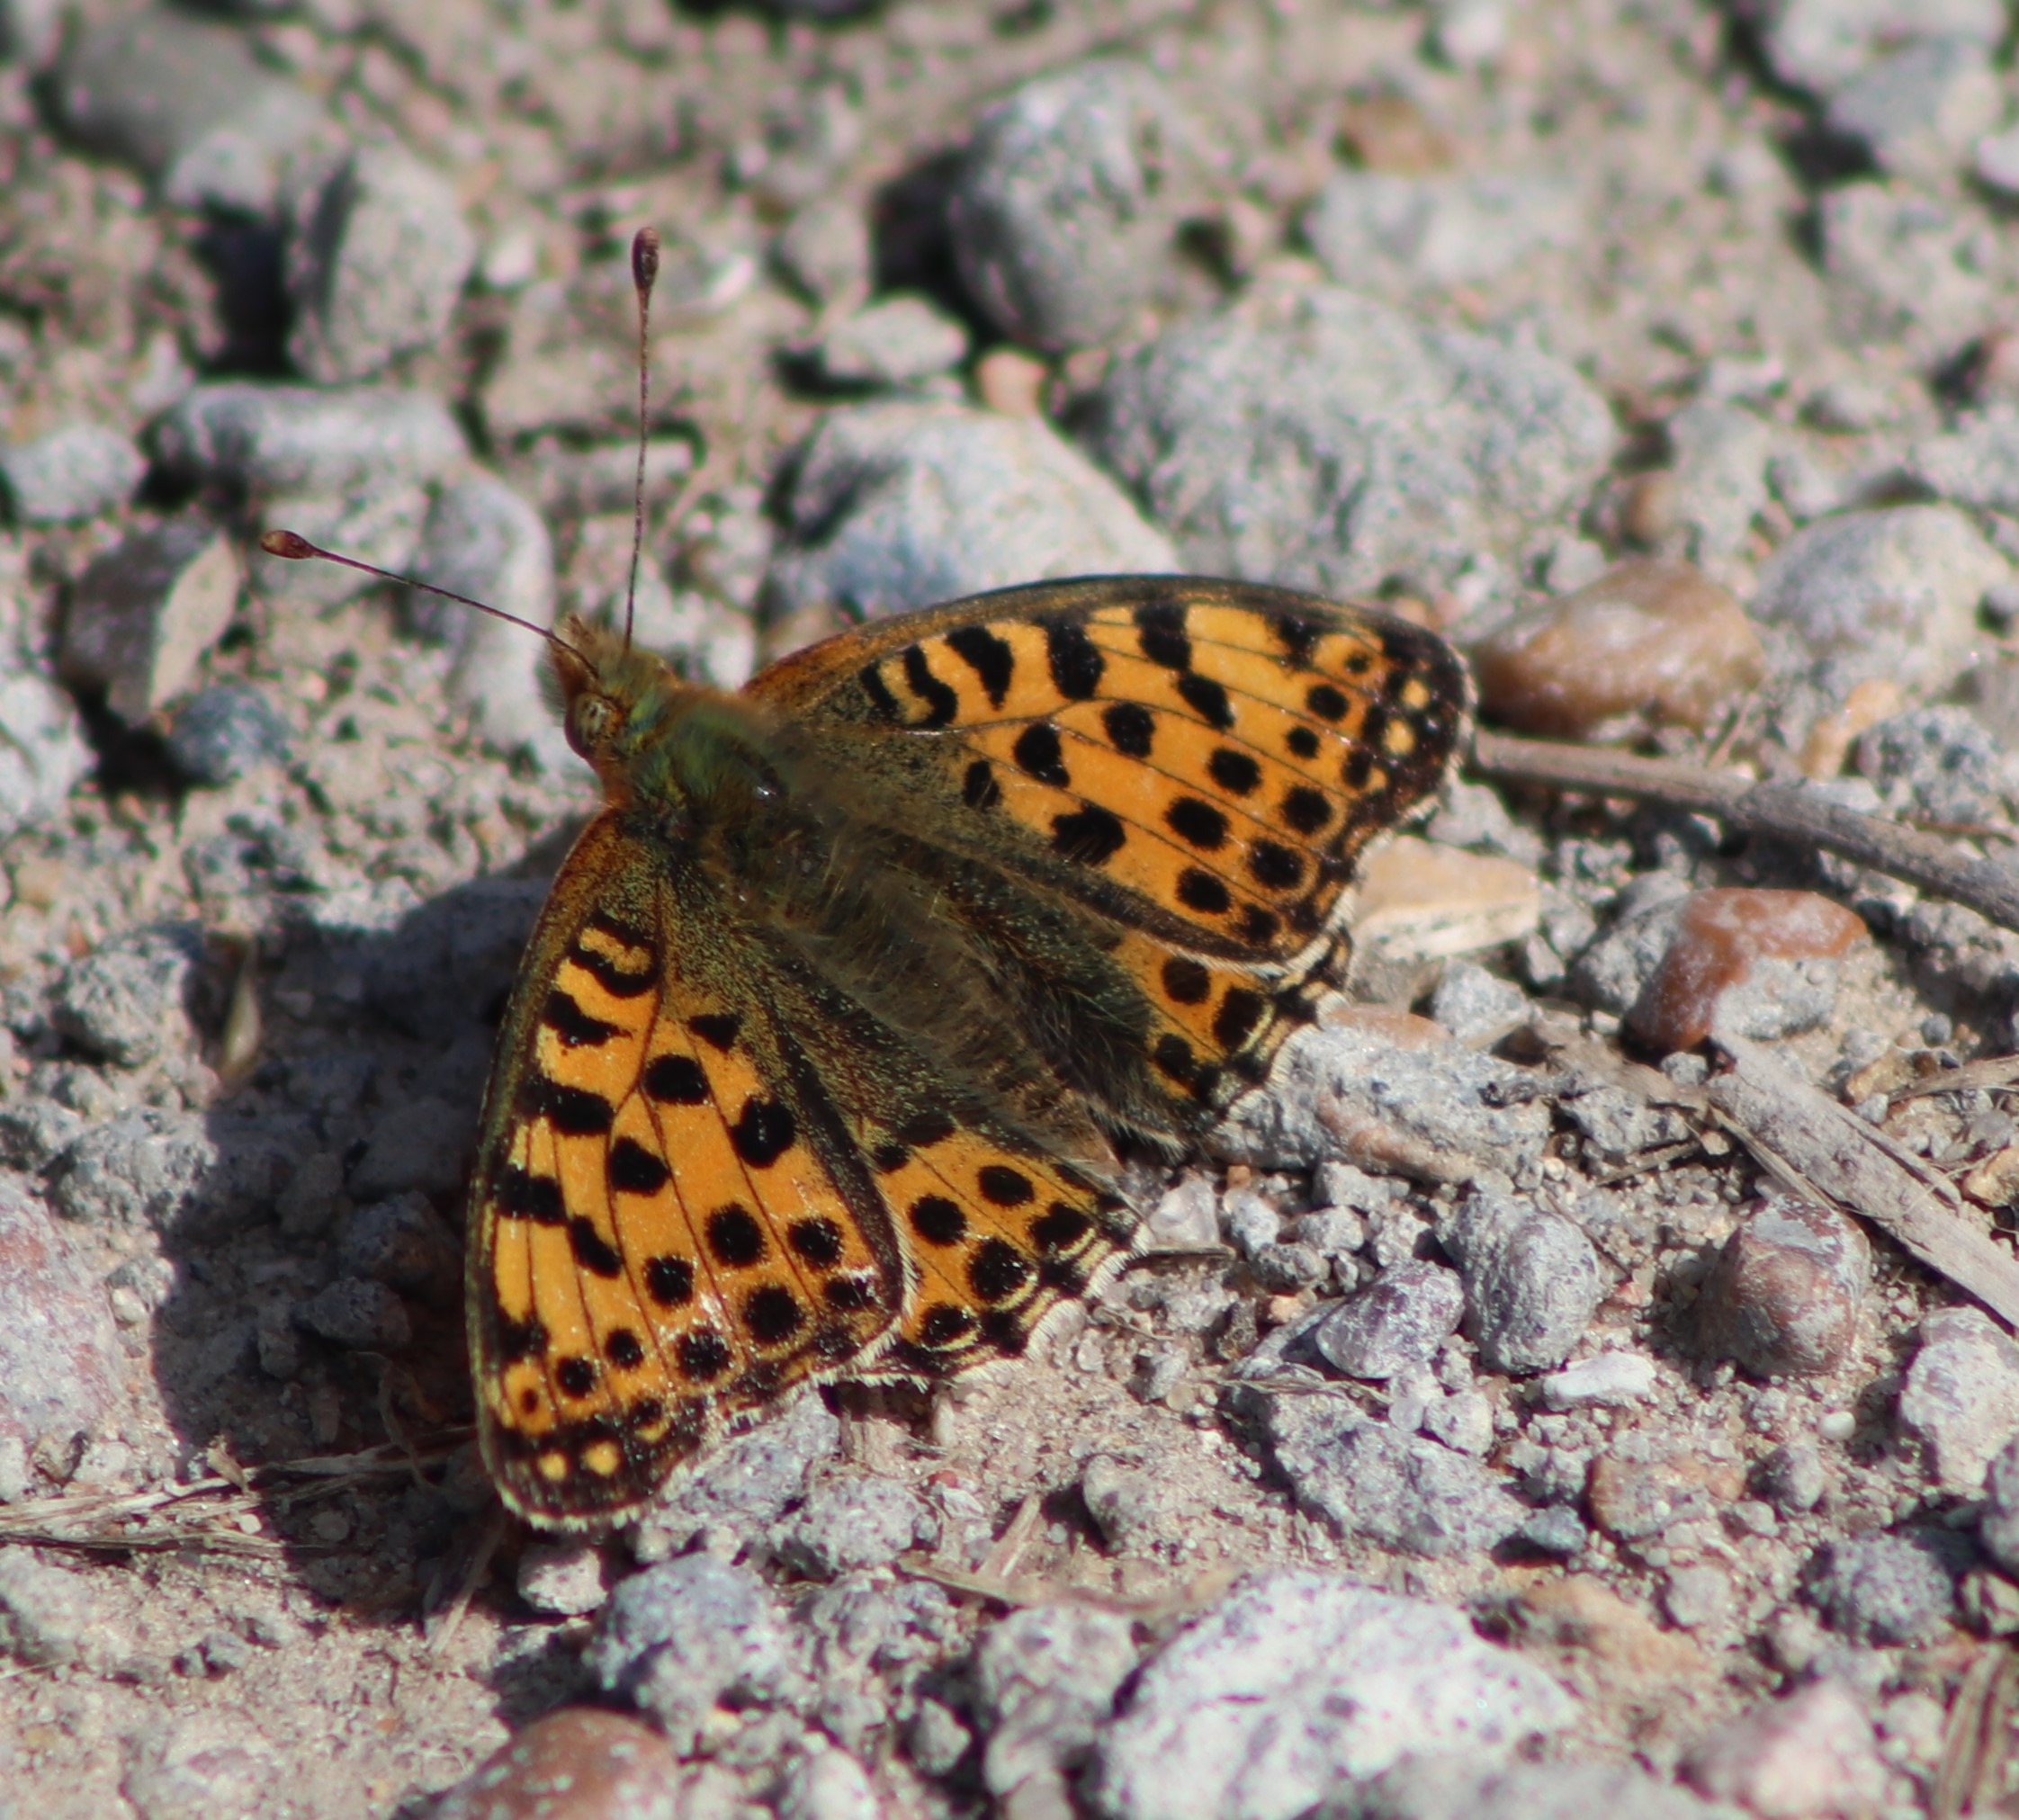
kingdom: Animalia
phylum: Arthropoda
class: Insecta
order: Lepidoptera
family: Nymphalidae
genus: Issoria
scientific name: Issoria lathonia
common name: Storplettet perlemorsommerfugl
